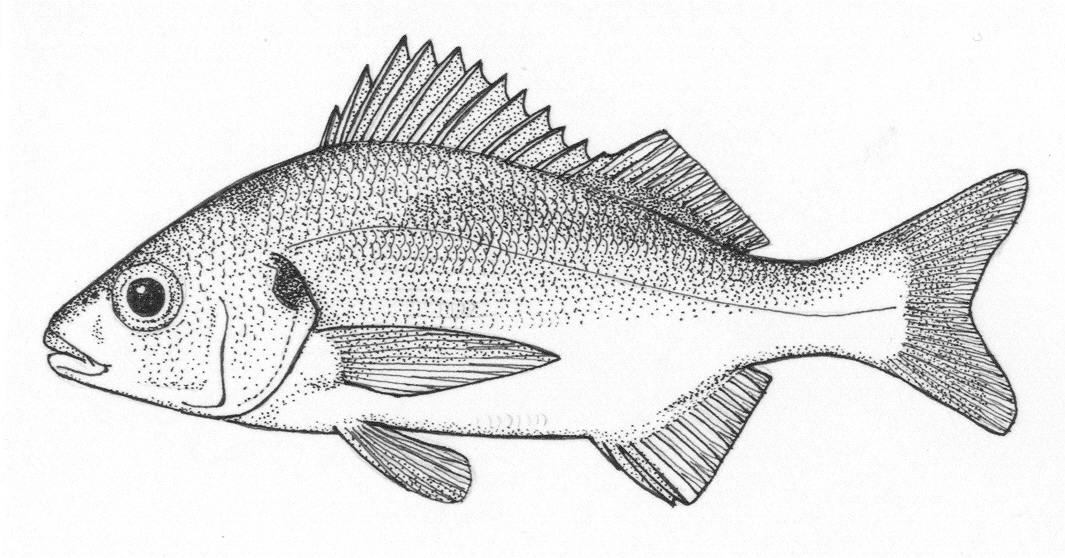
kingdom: Animalia
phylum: Chordata
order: Perciformes
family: Haemulidae
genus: Pomadasys
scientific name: Pomadasys olivaceus
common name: Olive grunt
